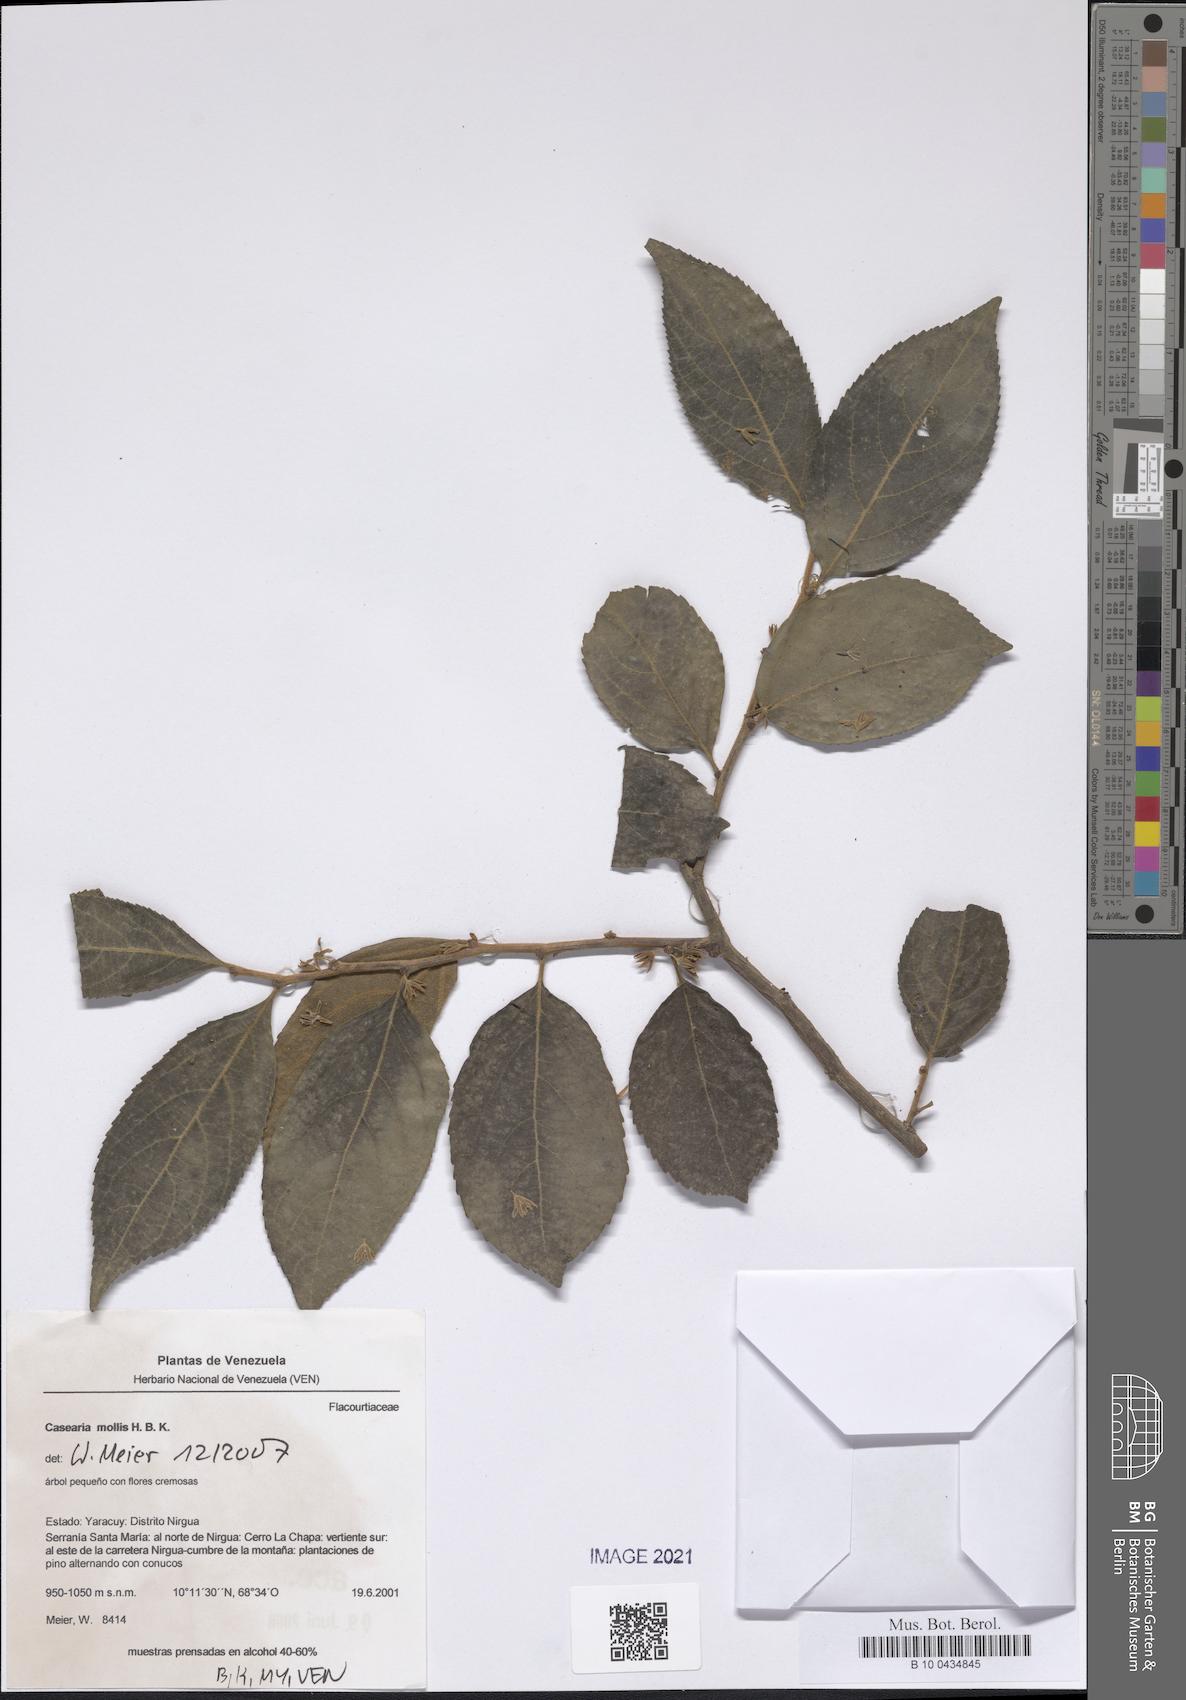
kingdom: Plantae
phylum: Tracheophyta
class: Magnoliopsida
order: Malpighiales
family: Salicaceae
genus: Casearia
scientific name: Casearia mollis
